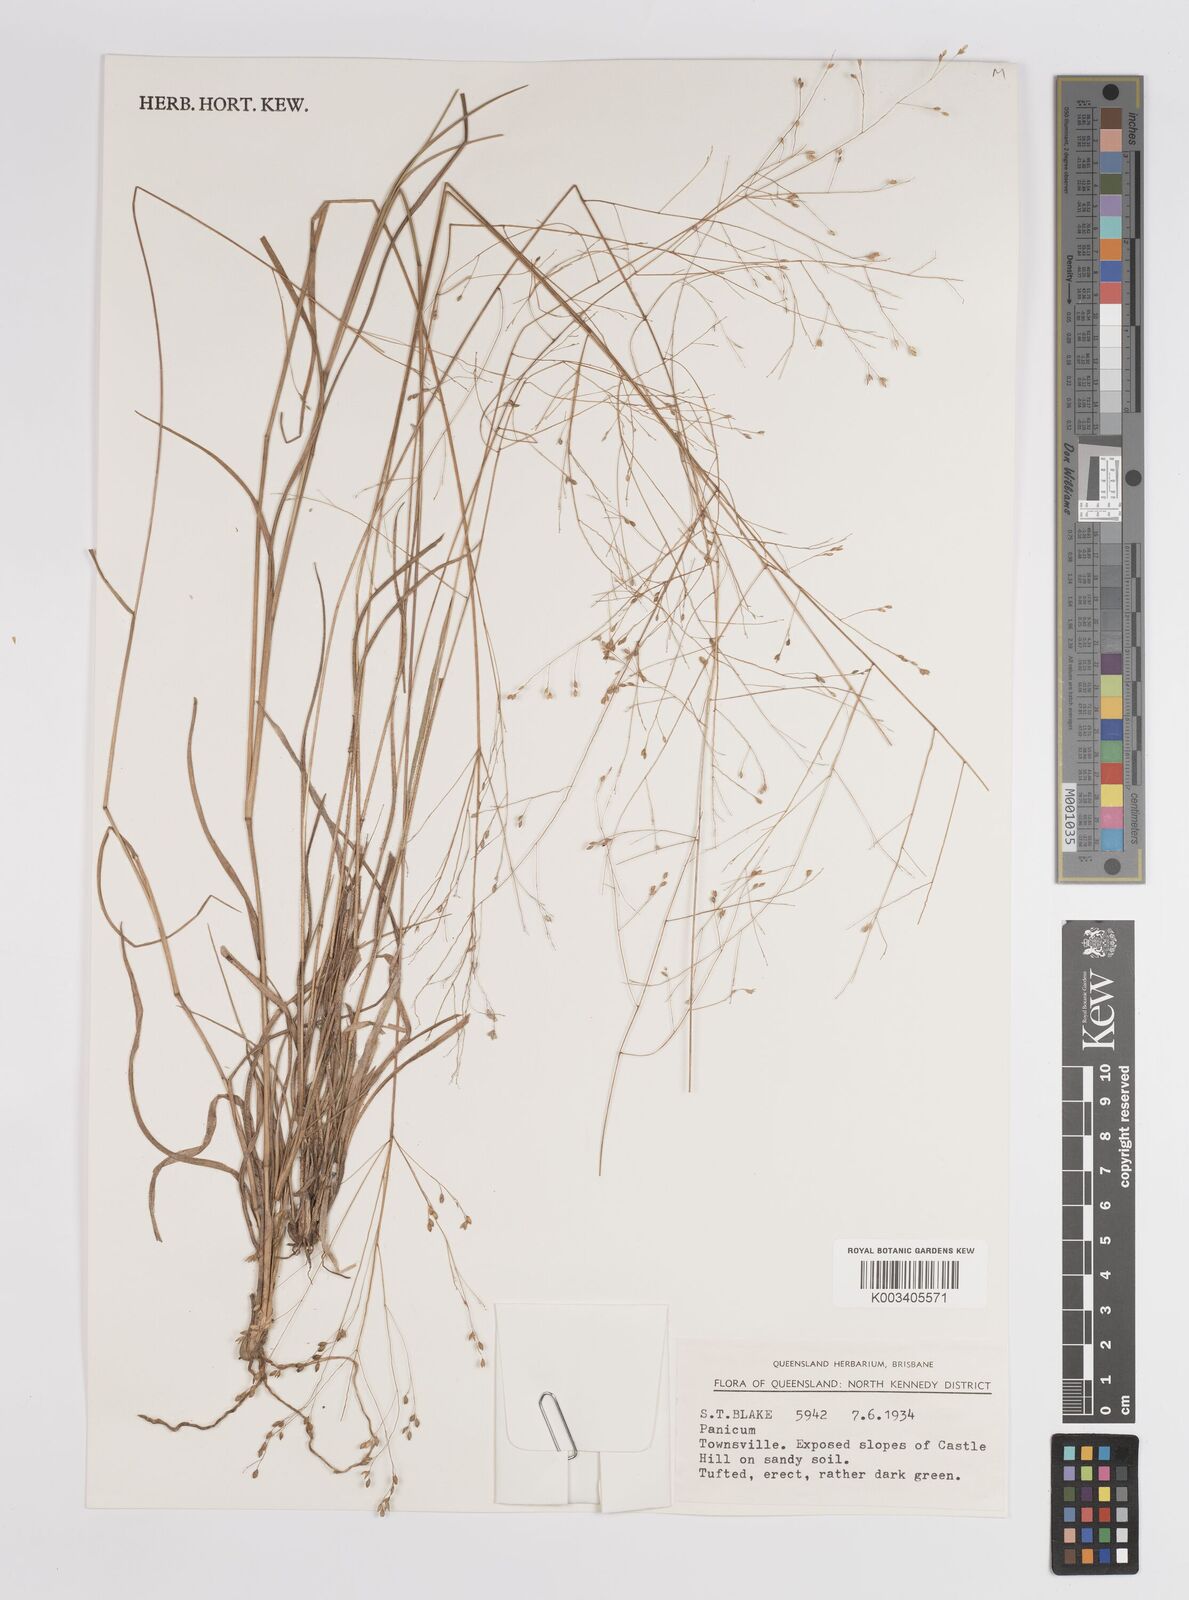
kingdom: Plantae
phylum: Tracheophyta
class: Liliopsida
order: Poales
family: Poaceae
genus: Panicum
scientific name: Panicum
